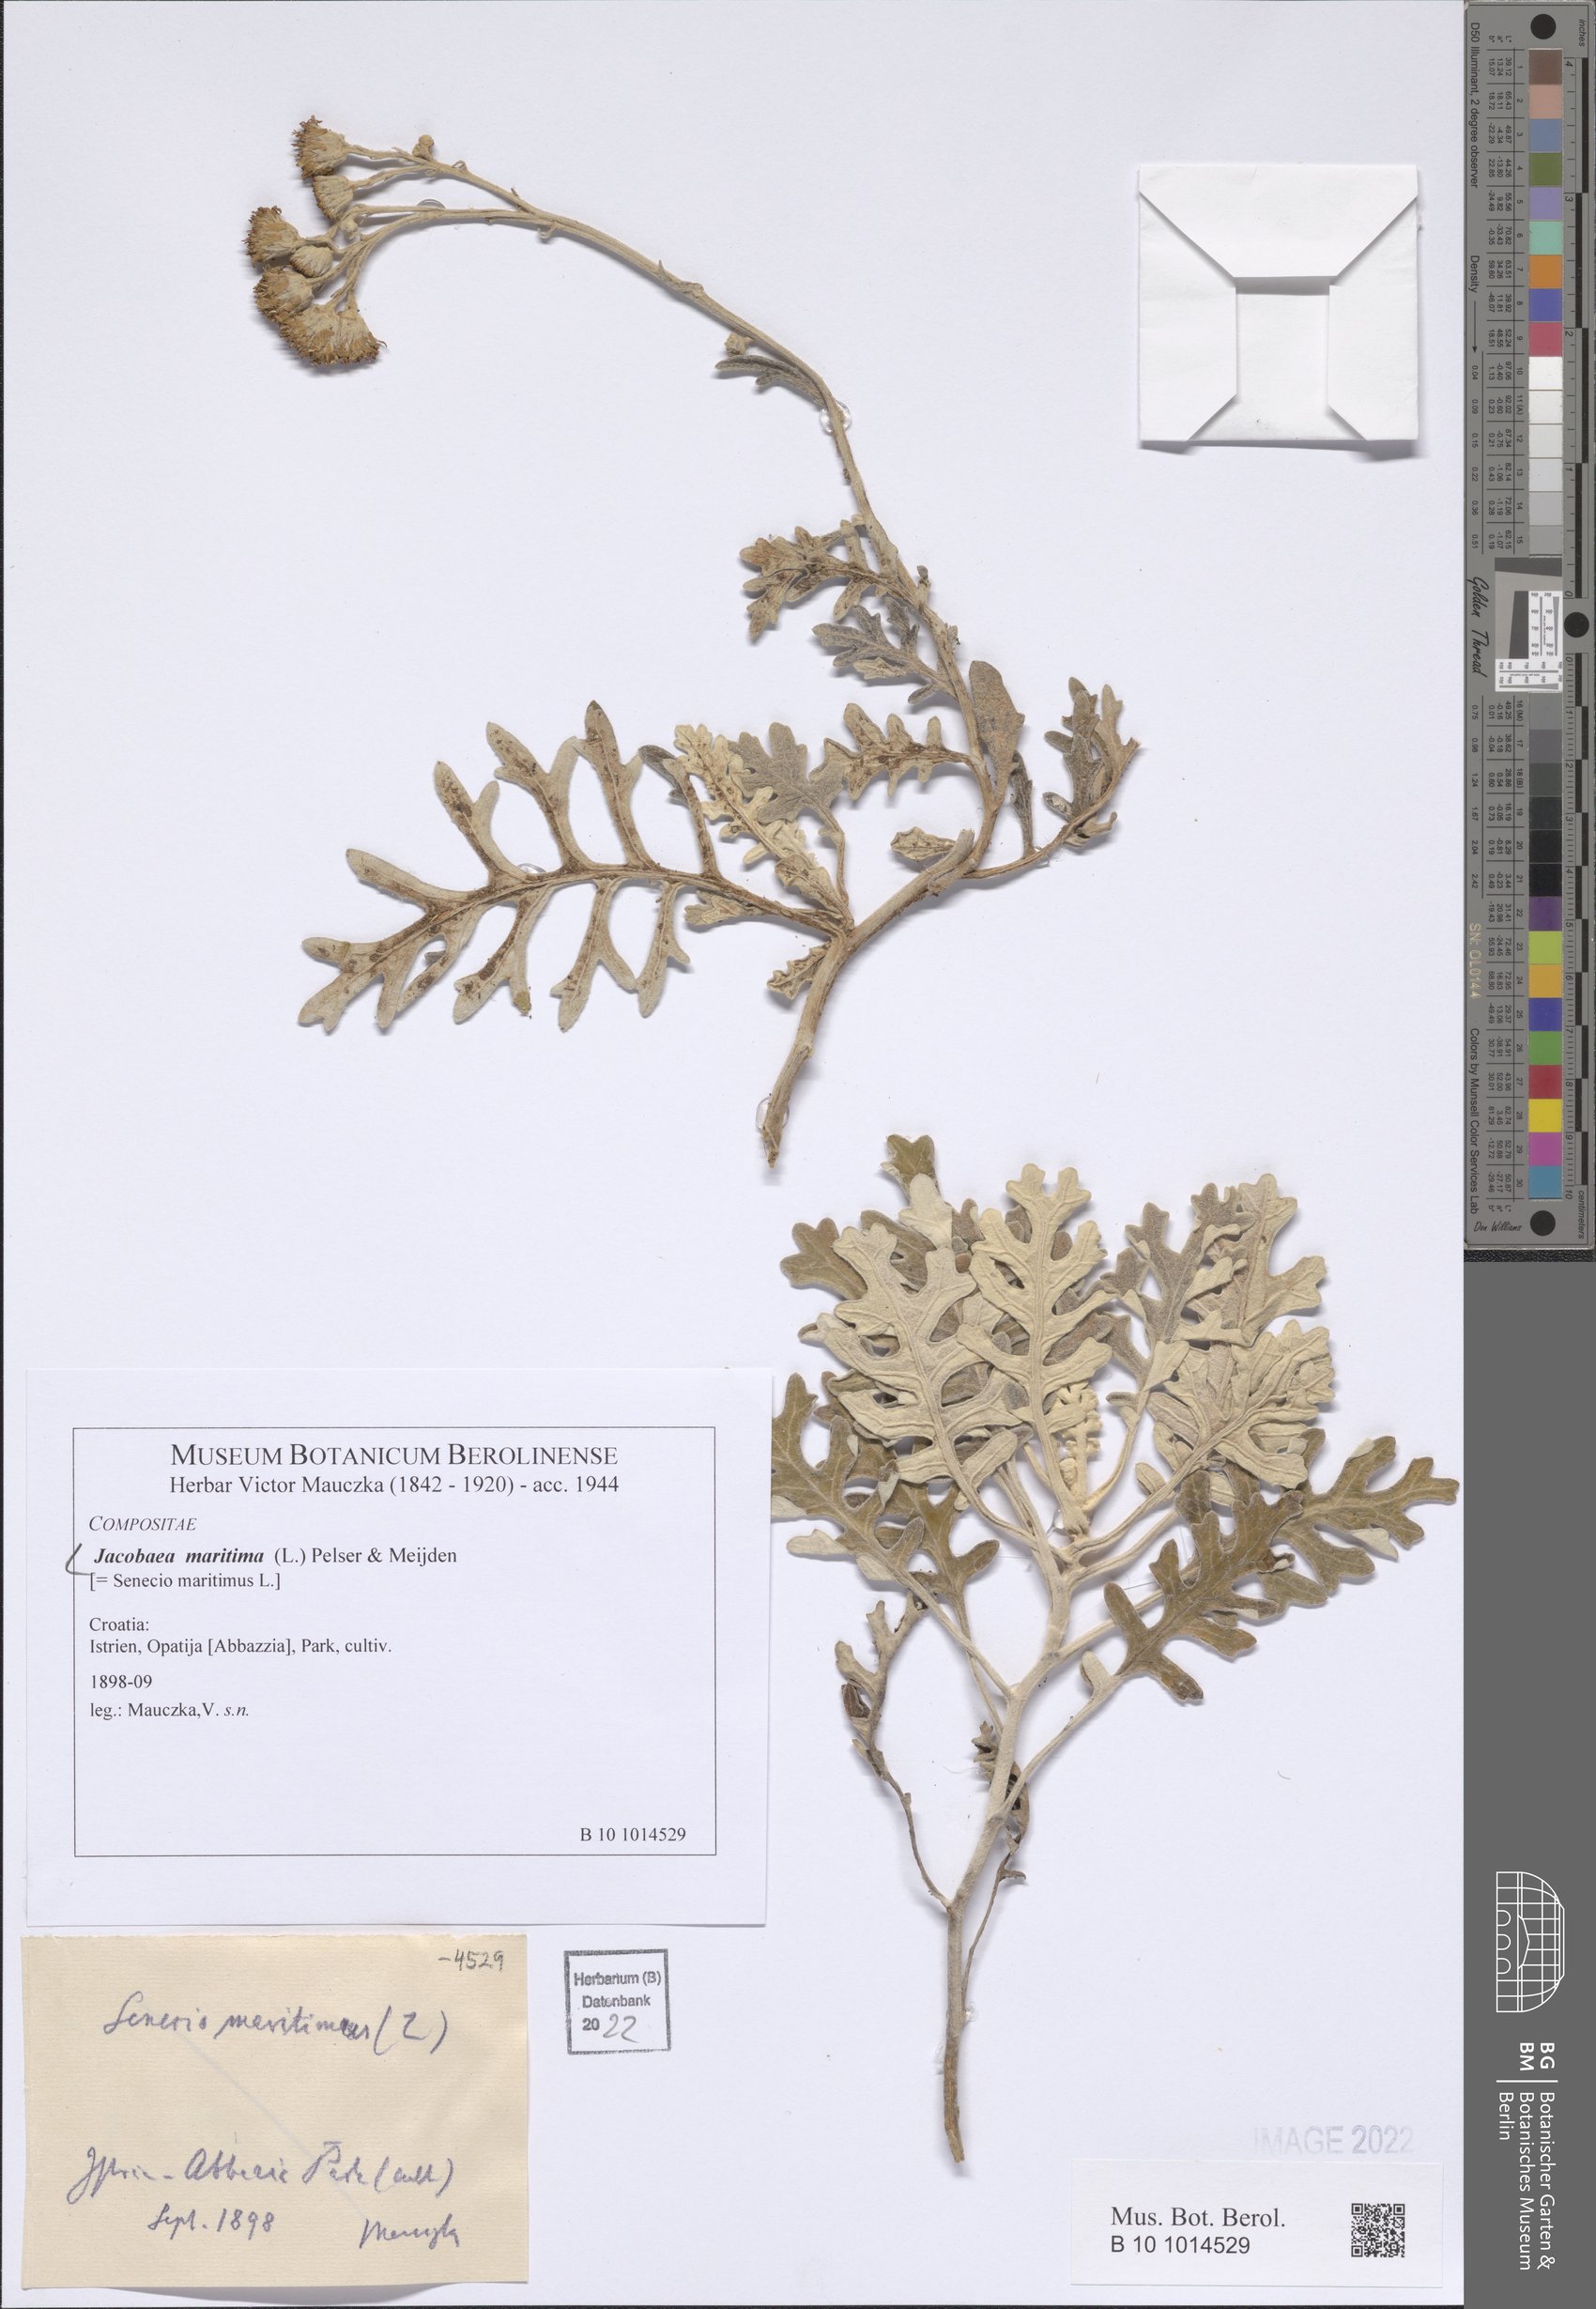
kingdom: Plantae
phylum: Tracheophyta
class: Magnoliopsida
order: Asterales
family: Asteraceae
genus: Jacobaea
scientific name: Jacobaea maritima
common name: Silver ragwort
